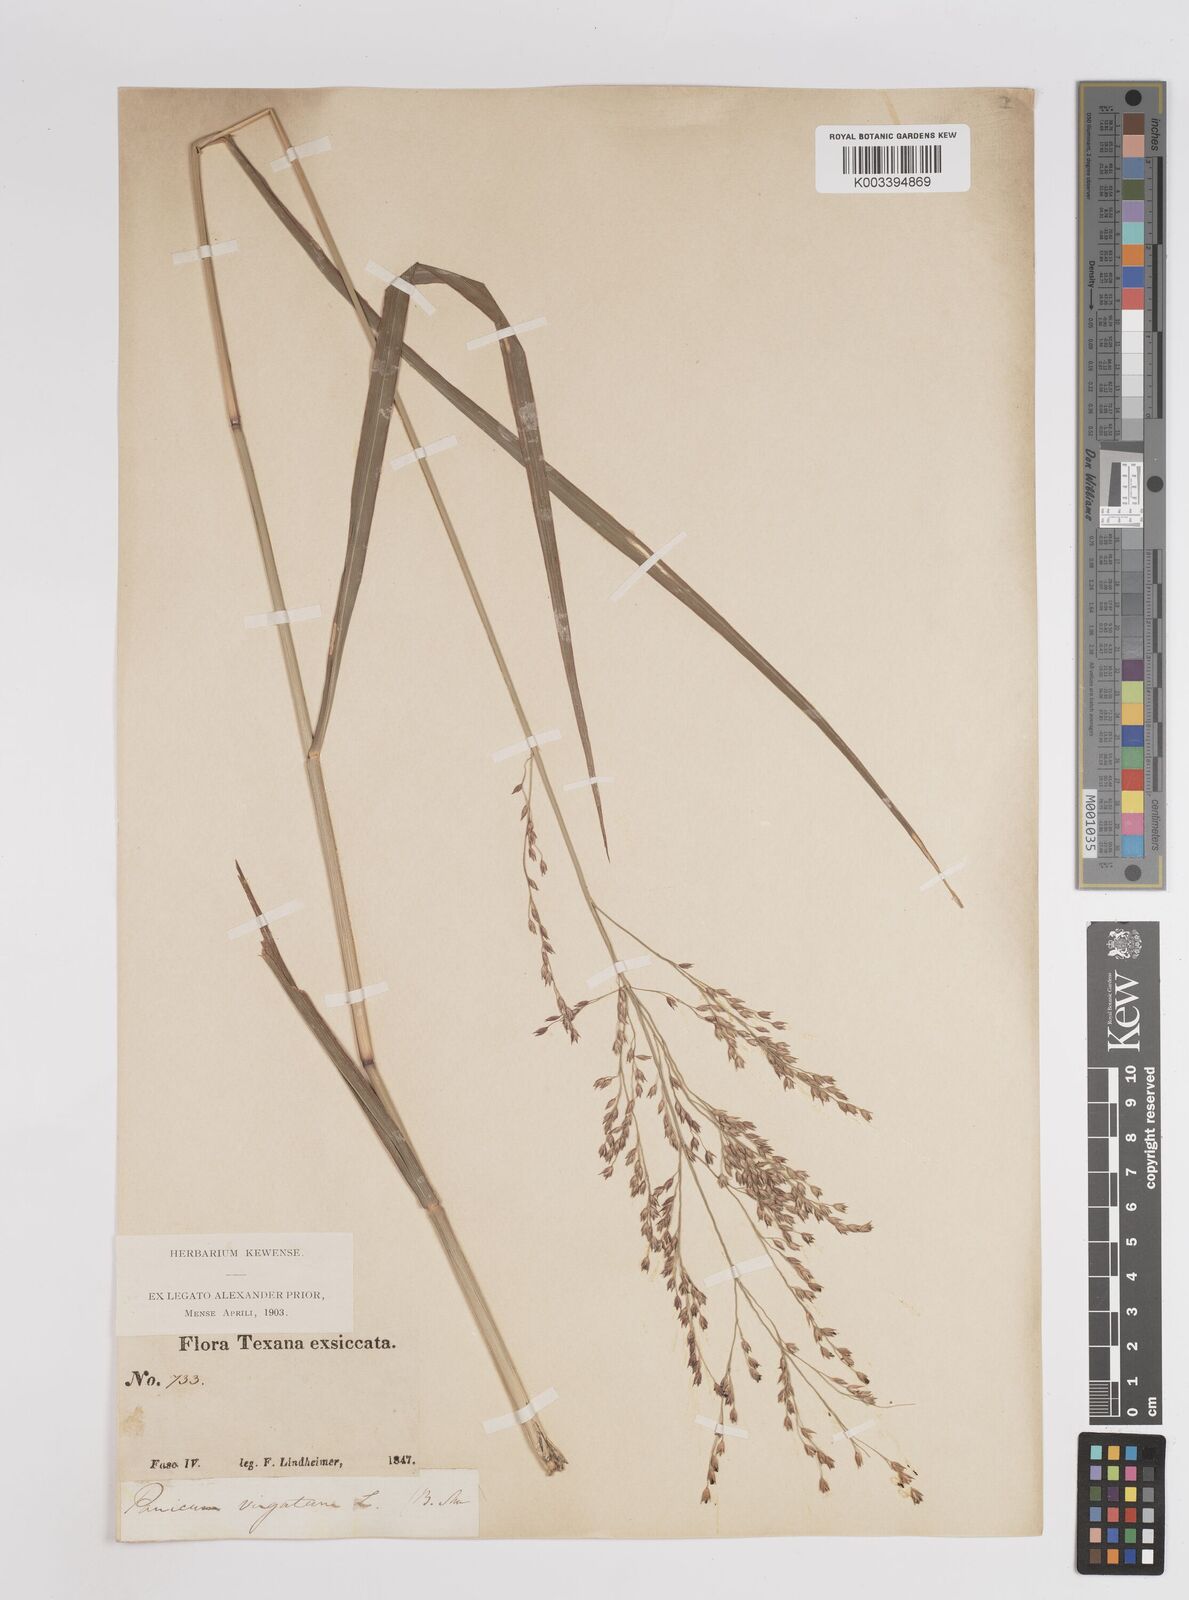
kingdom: Plantae
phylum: Tracheophyta
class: Liliopsida
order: Poales
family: Poaceae
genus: Panicum
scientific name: Panicum virgatum
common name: Switchgrass
